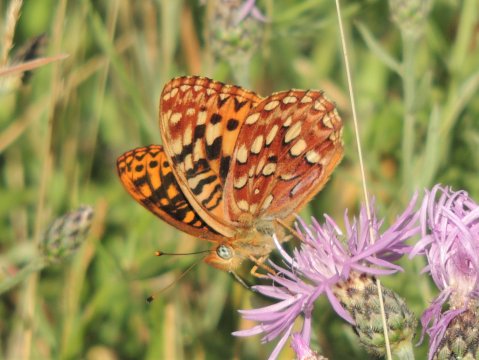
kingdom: Animalia
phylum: Arthropoda
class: Insecta
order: Lepidoptera
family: Nymphalidae
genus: Speyeria
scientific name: Speyeria hydaspe
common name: Hydaspe Fritillary
